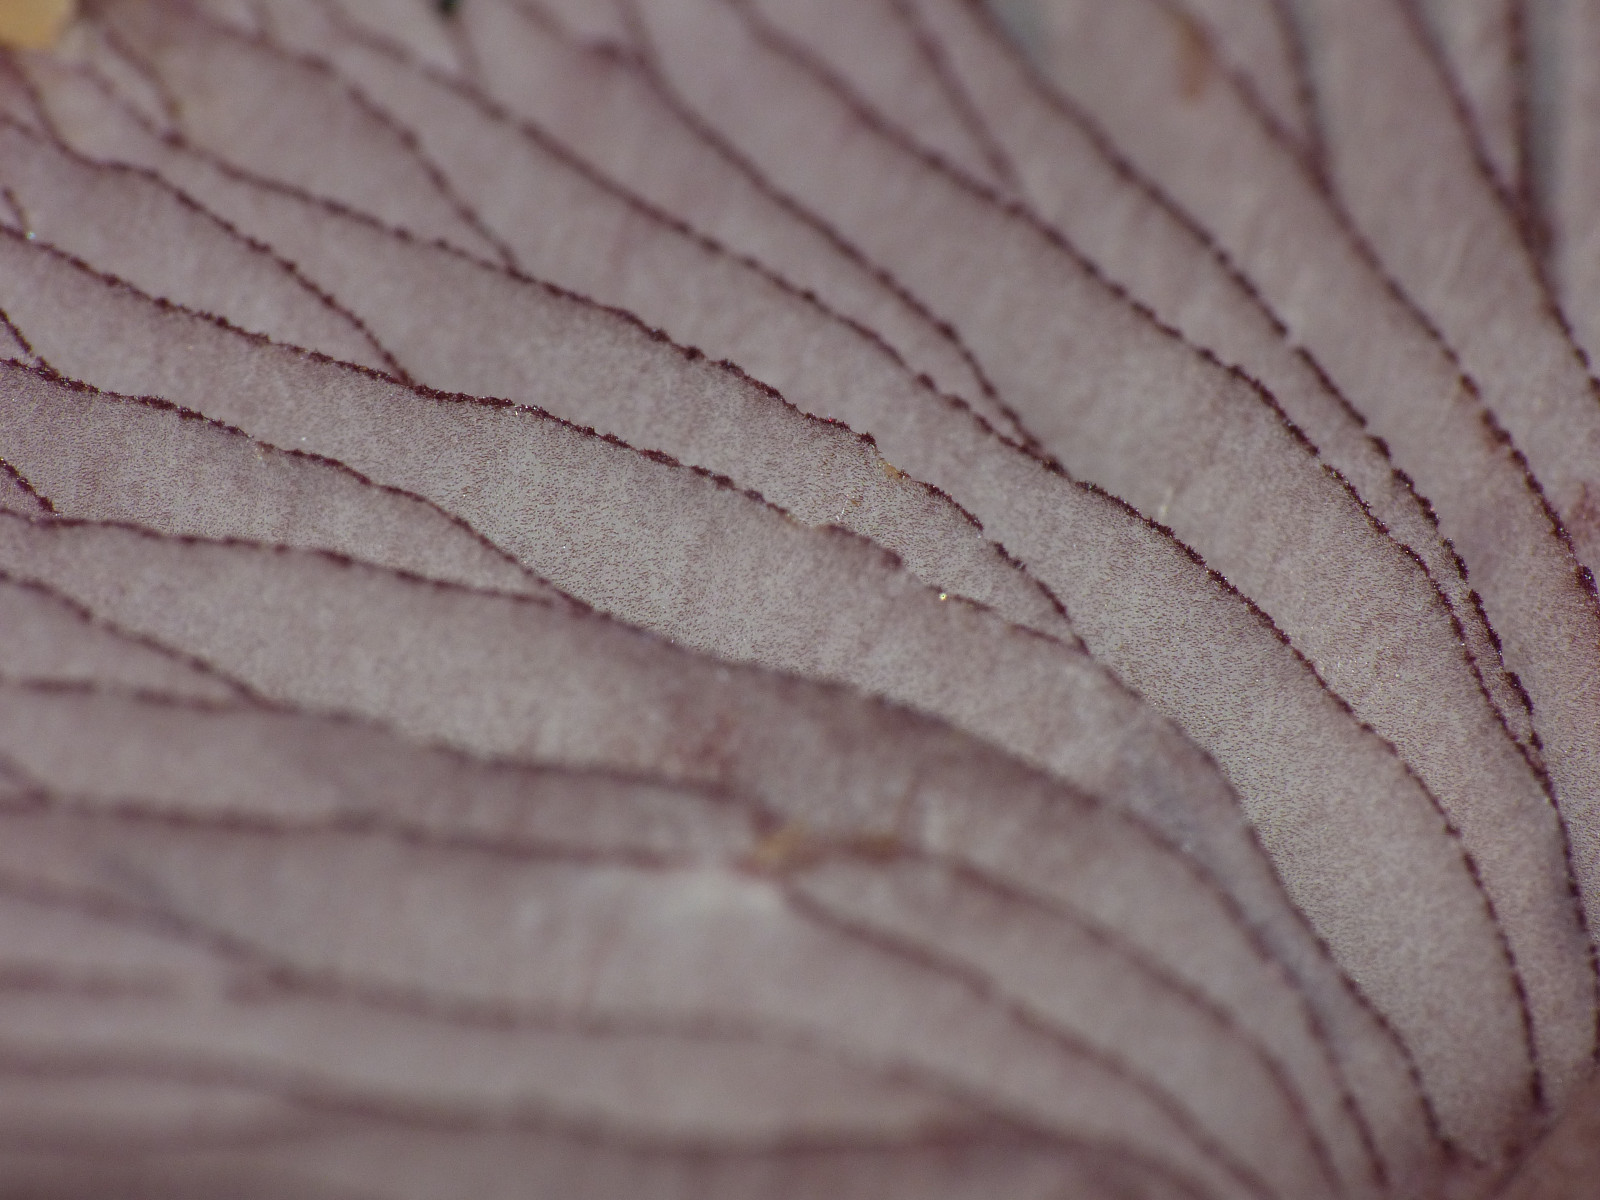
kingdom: Fungi
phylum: Basidiomycota
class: Agaricomycetes
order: Agaricales
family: Mycenaceae
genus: Mycena
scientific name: Mycena pelianthina
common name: mørkbladet huesvamp
